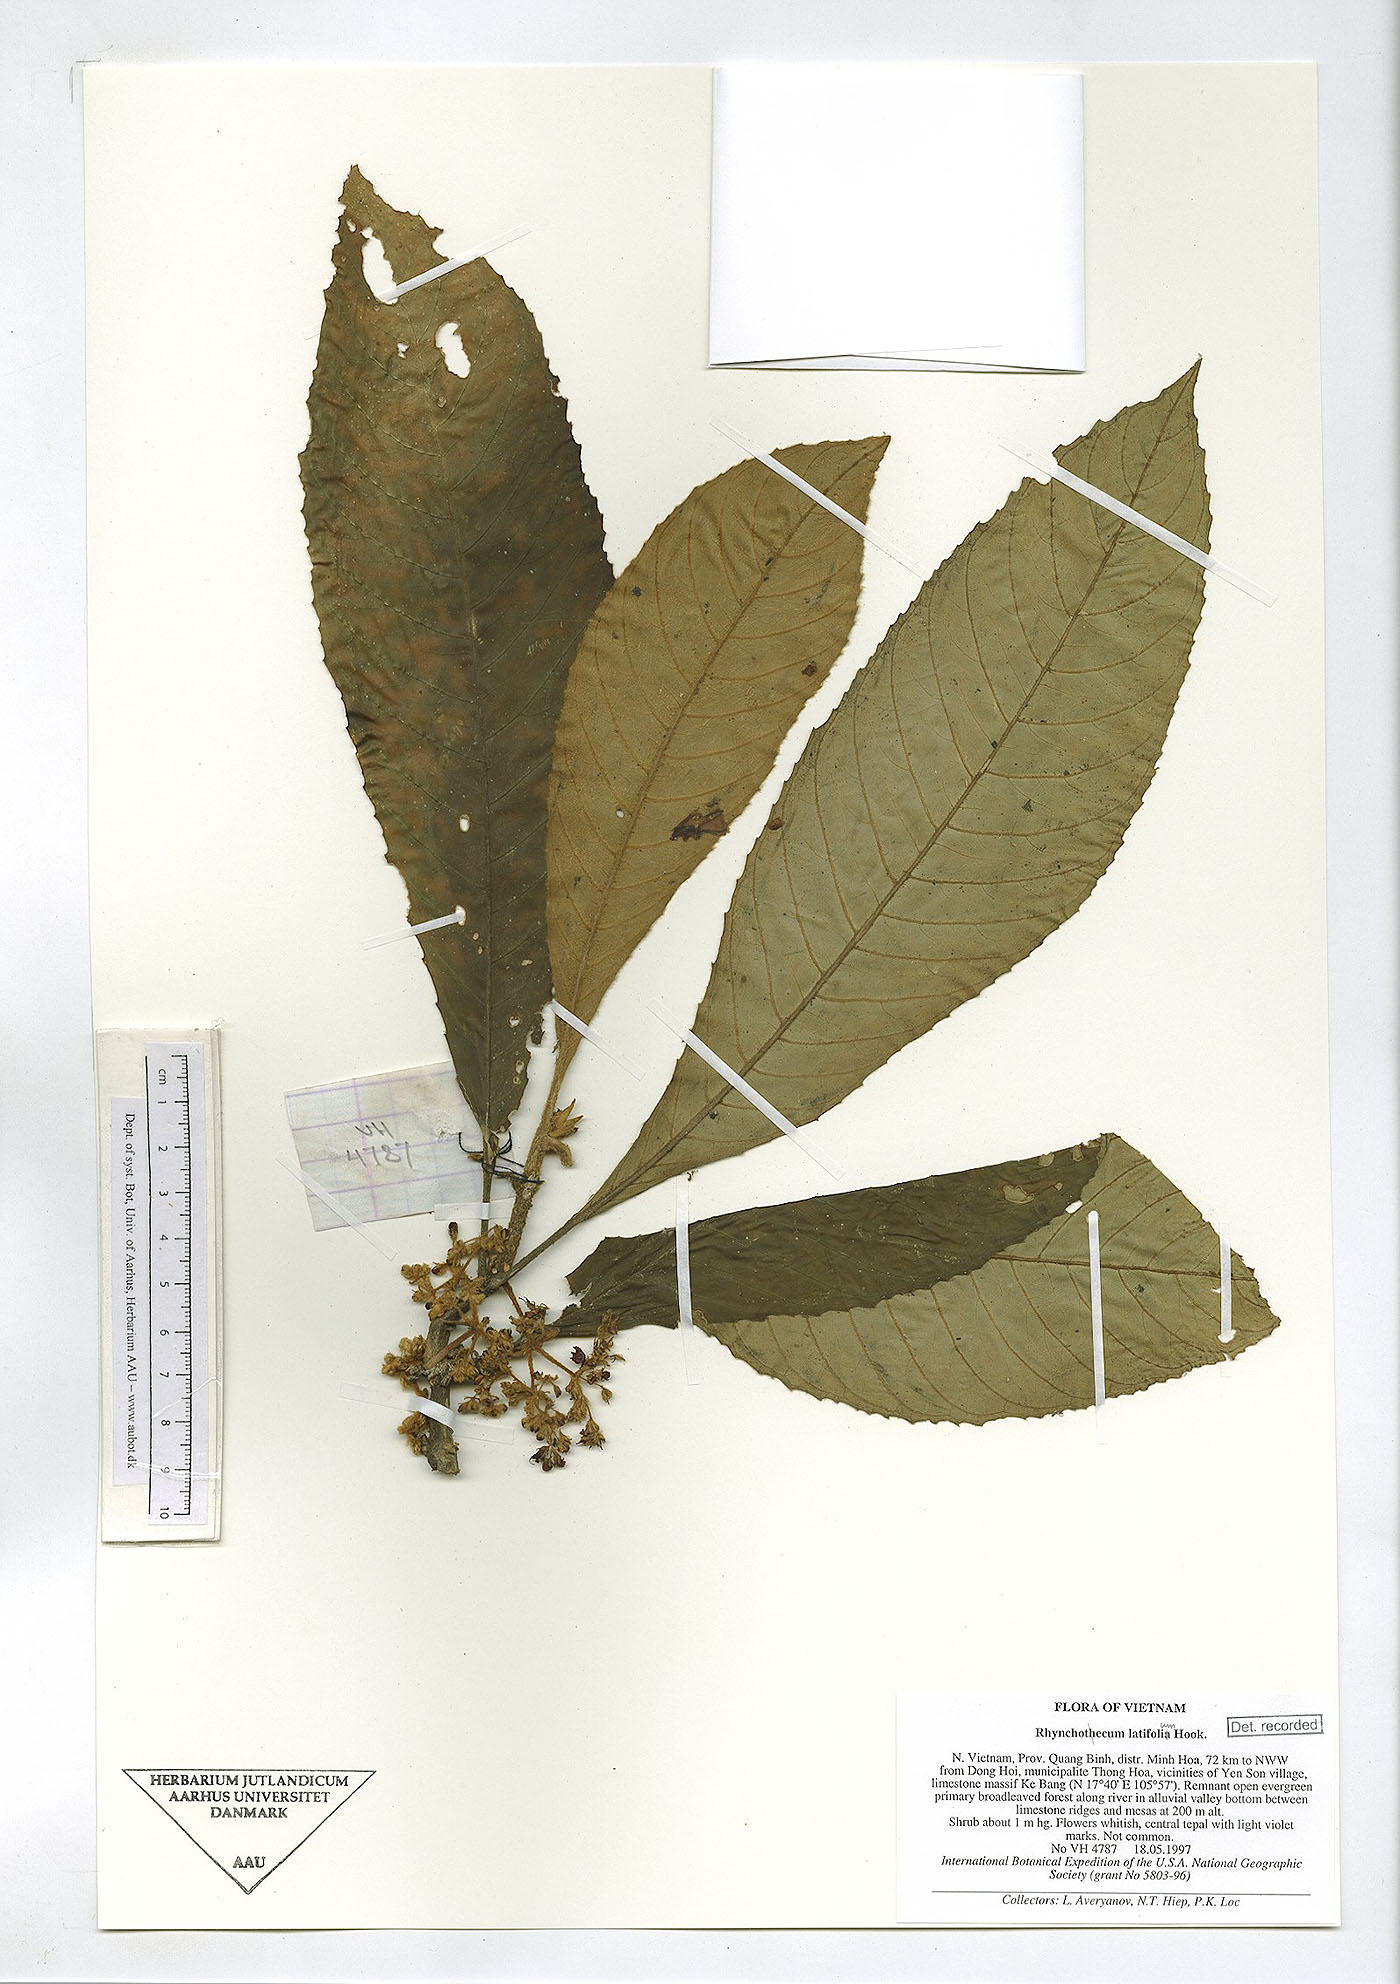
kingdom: Plantae
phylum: Tracheophyta
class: Magnoliopsida
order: Lamiales
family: Gesneriaceae
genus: Rhynchotechum
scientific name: Rhynchotechum obovatum
